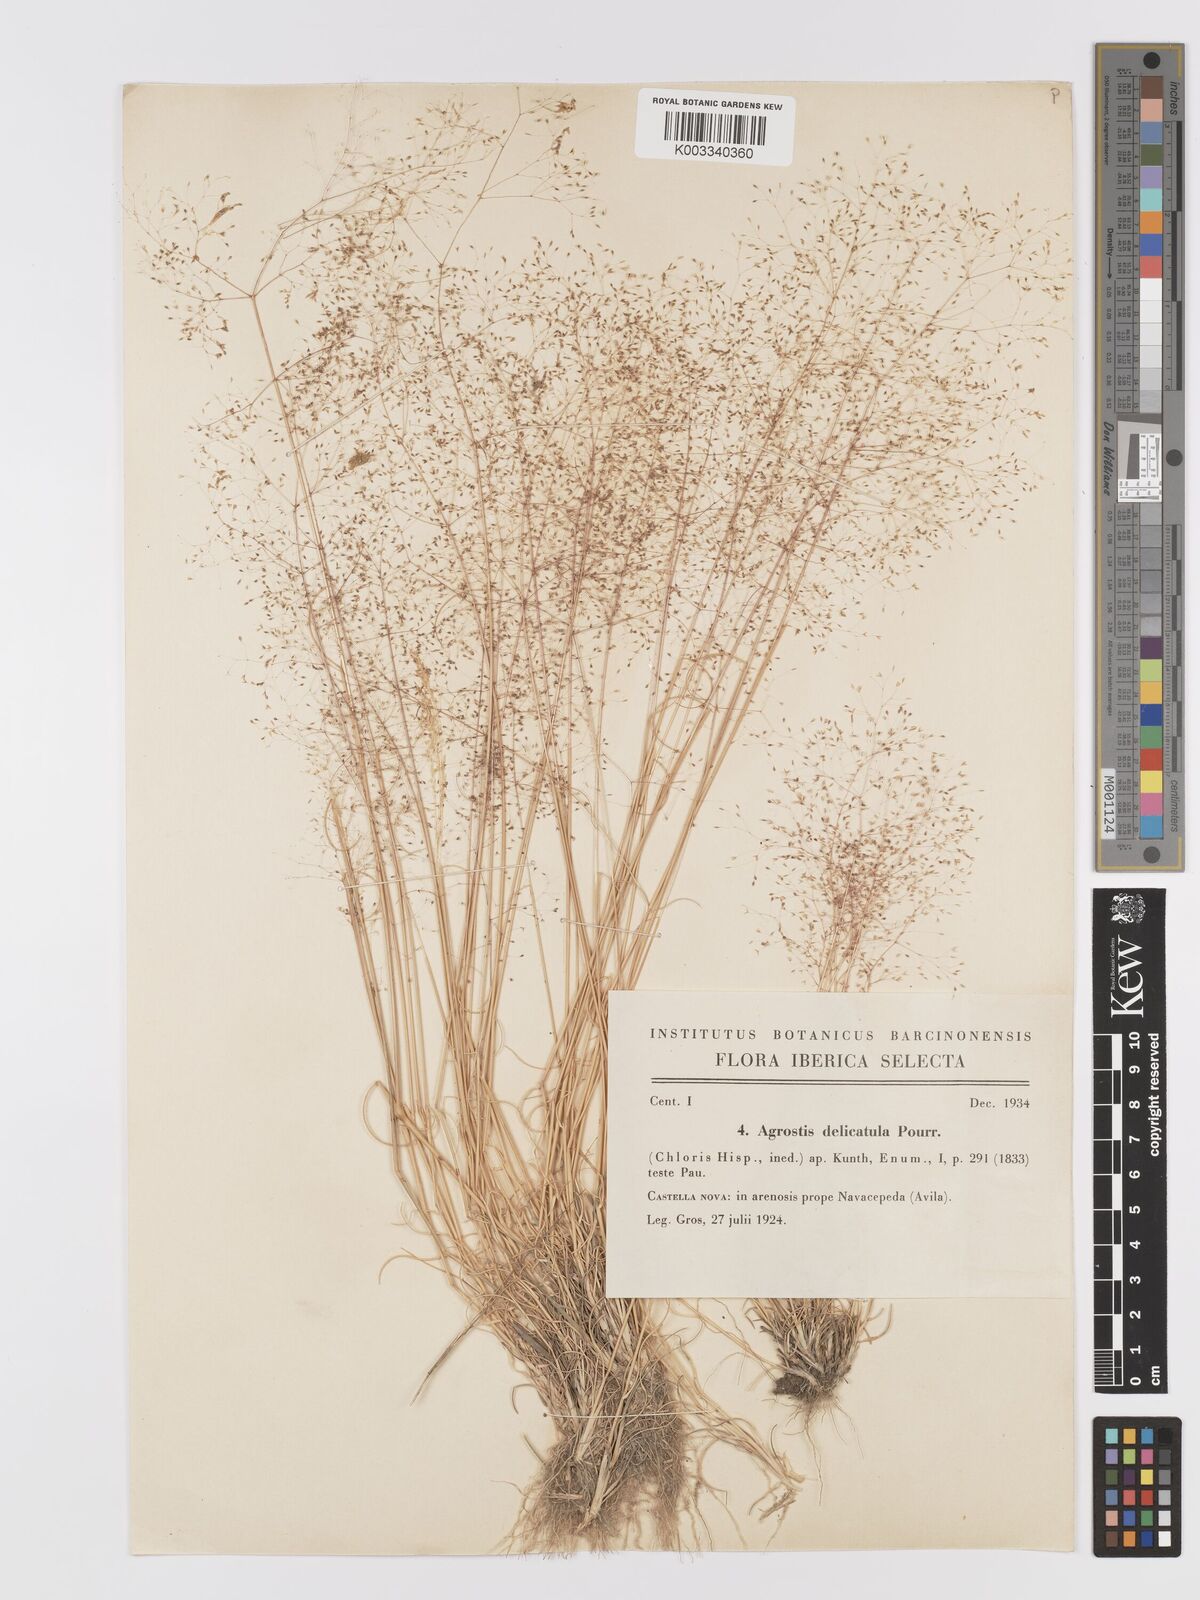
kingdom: Plantae
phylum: Tracheophyta
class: Liliopsida
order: Poales
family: Poaceae
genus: Agrostis
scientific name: Agrostis castellana
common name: Highland bent
